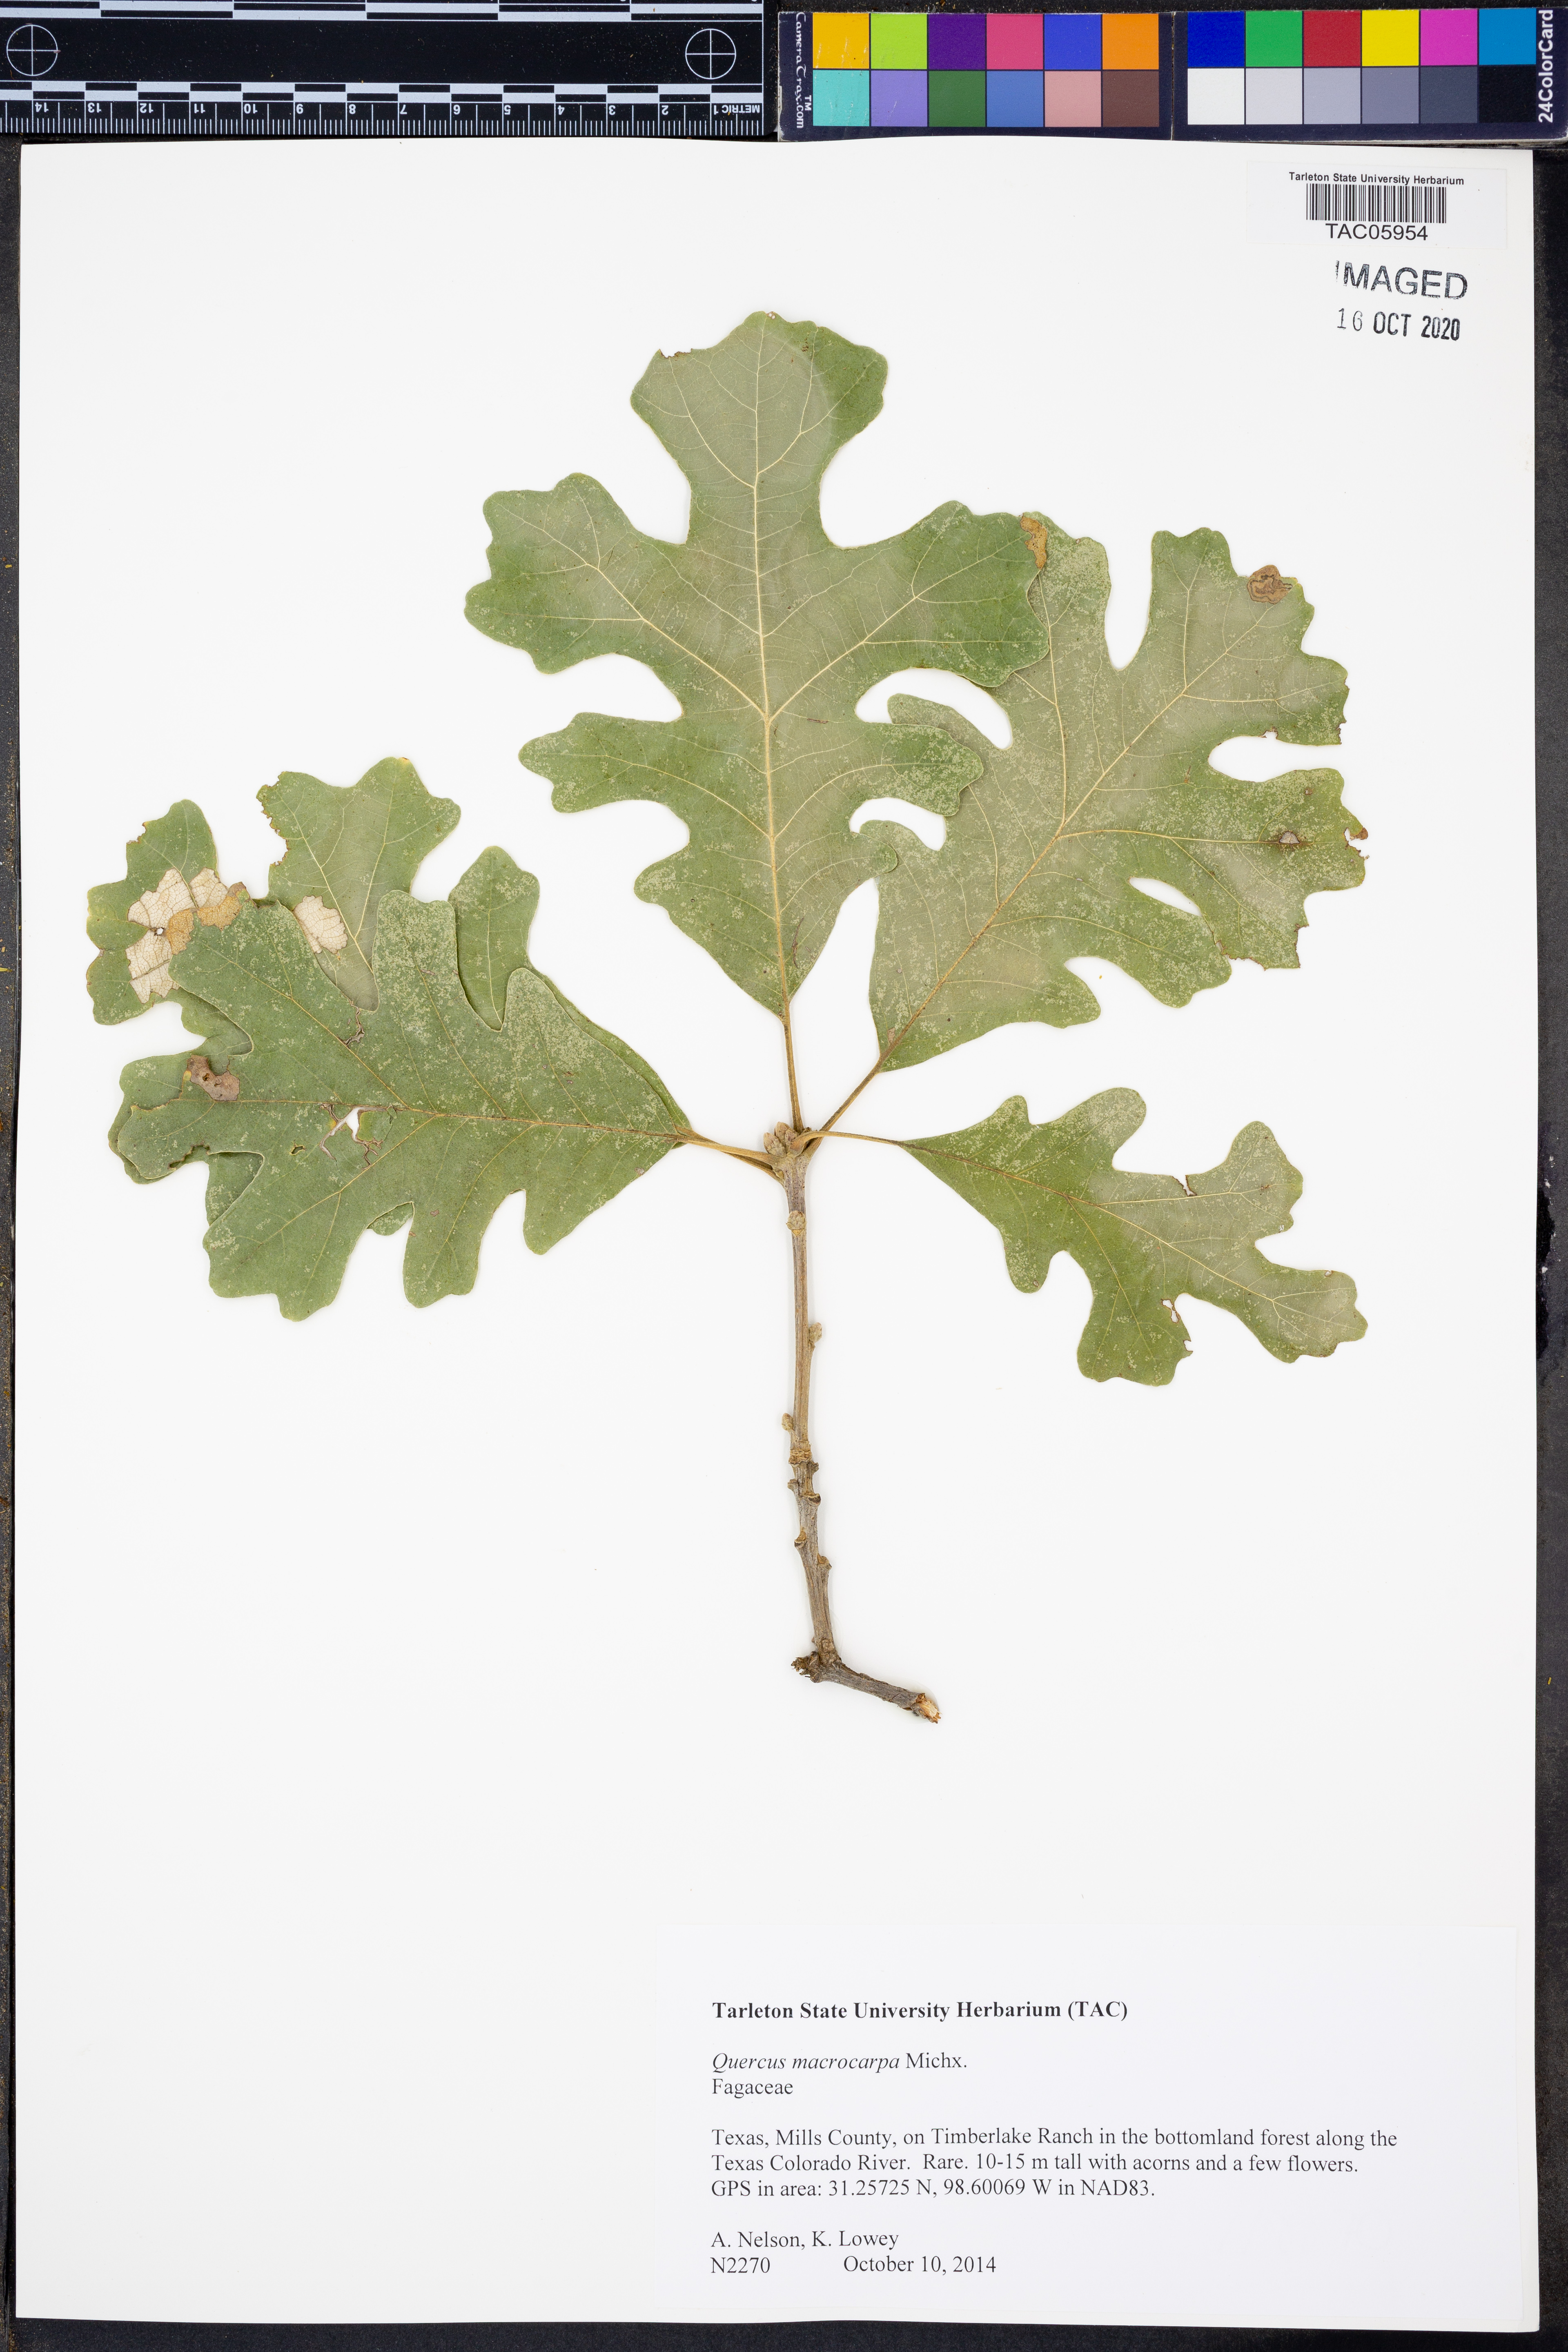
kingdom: Plantae
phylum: Tracheophyta
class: Magnoliopsida
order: Fagales
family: Fagaceae
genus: Quercus
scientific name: Quercus macrocarpa
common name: Bur oak
